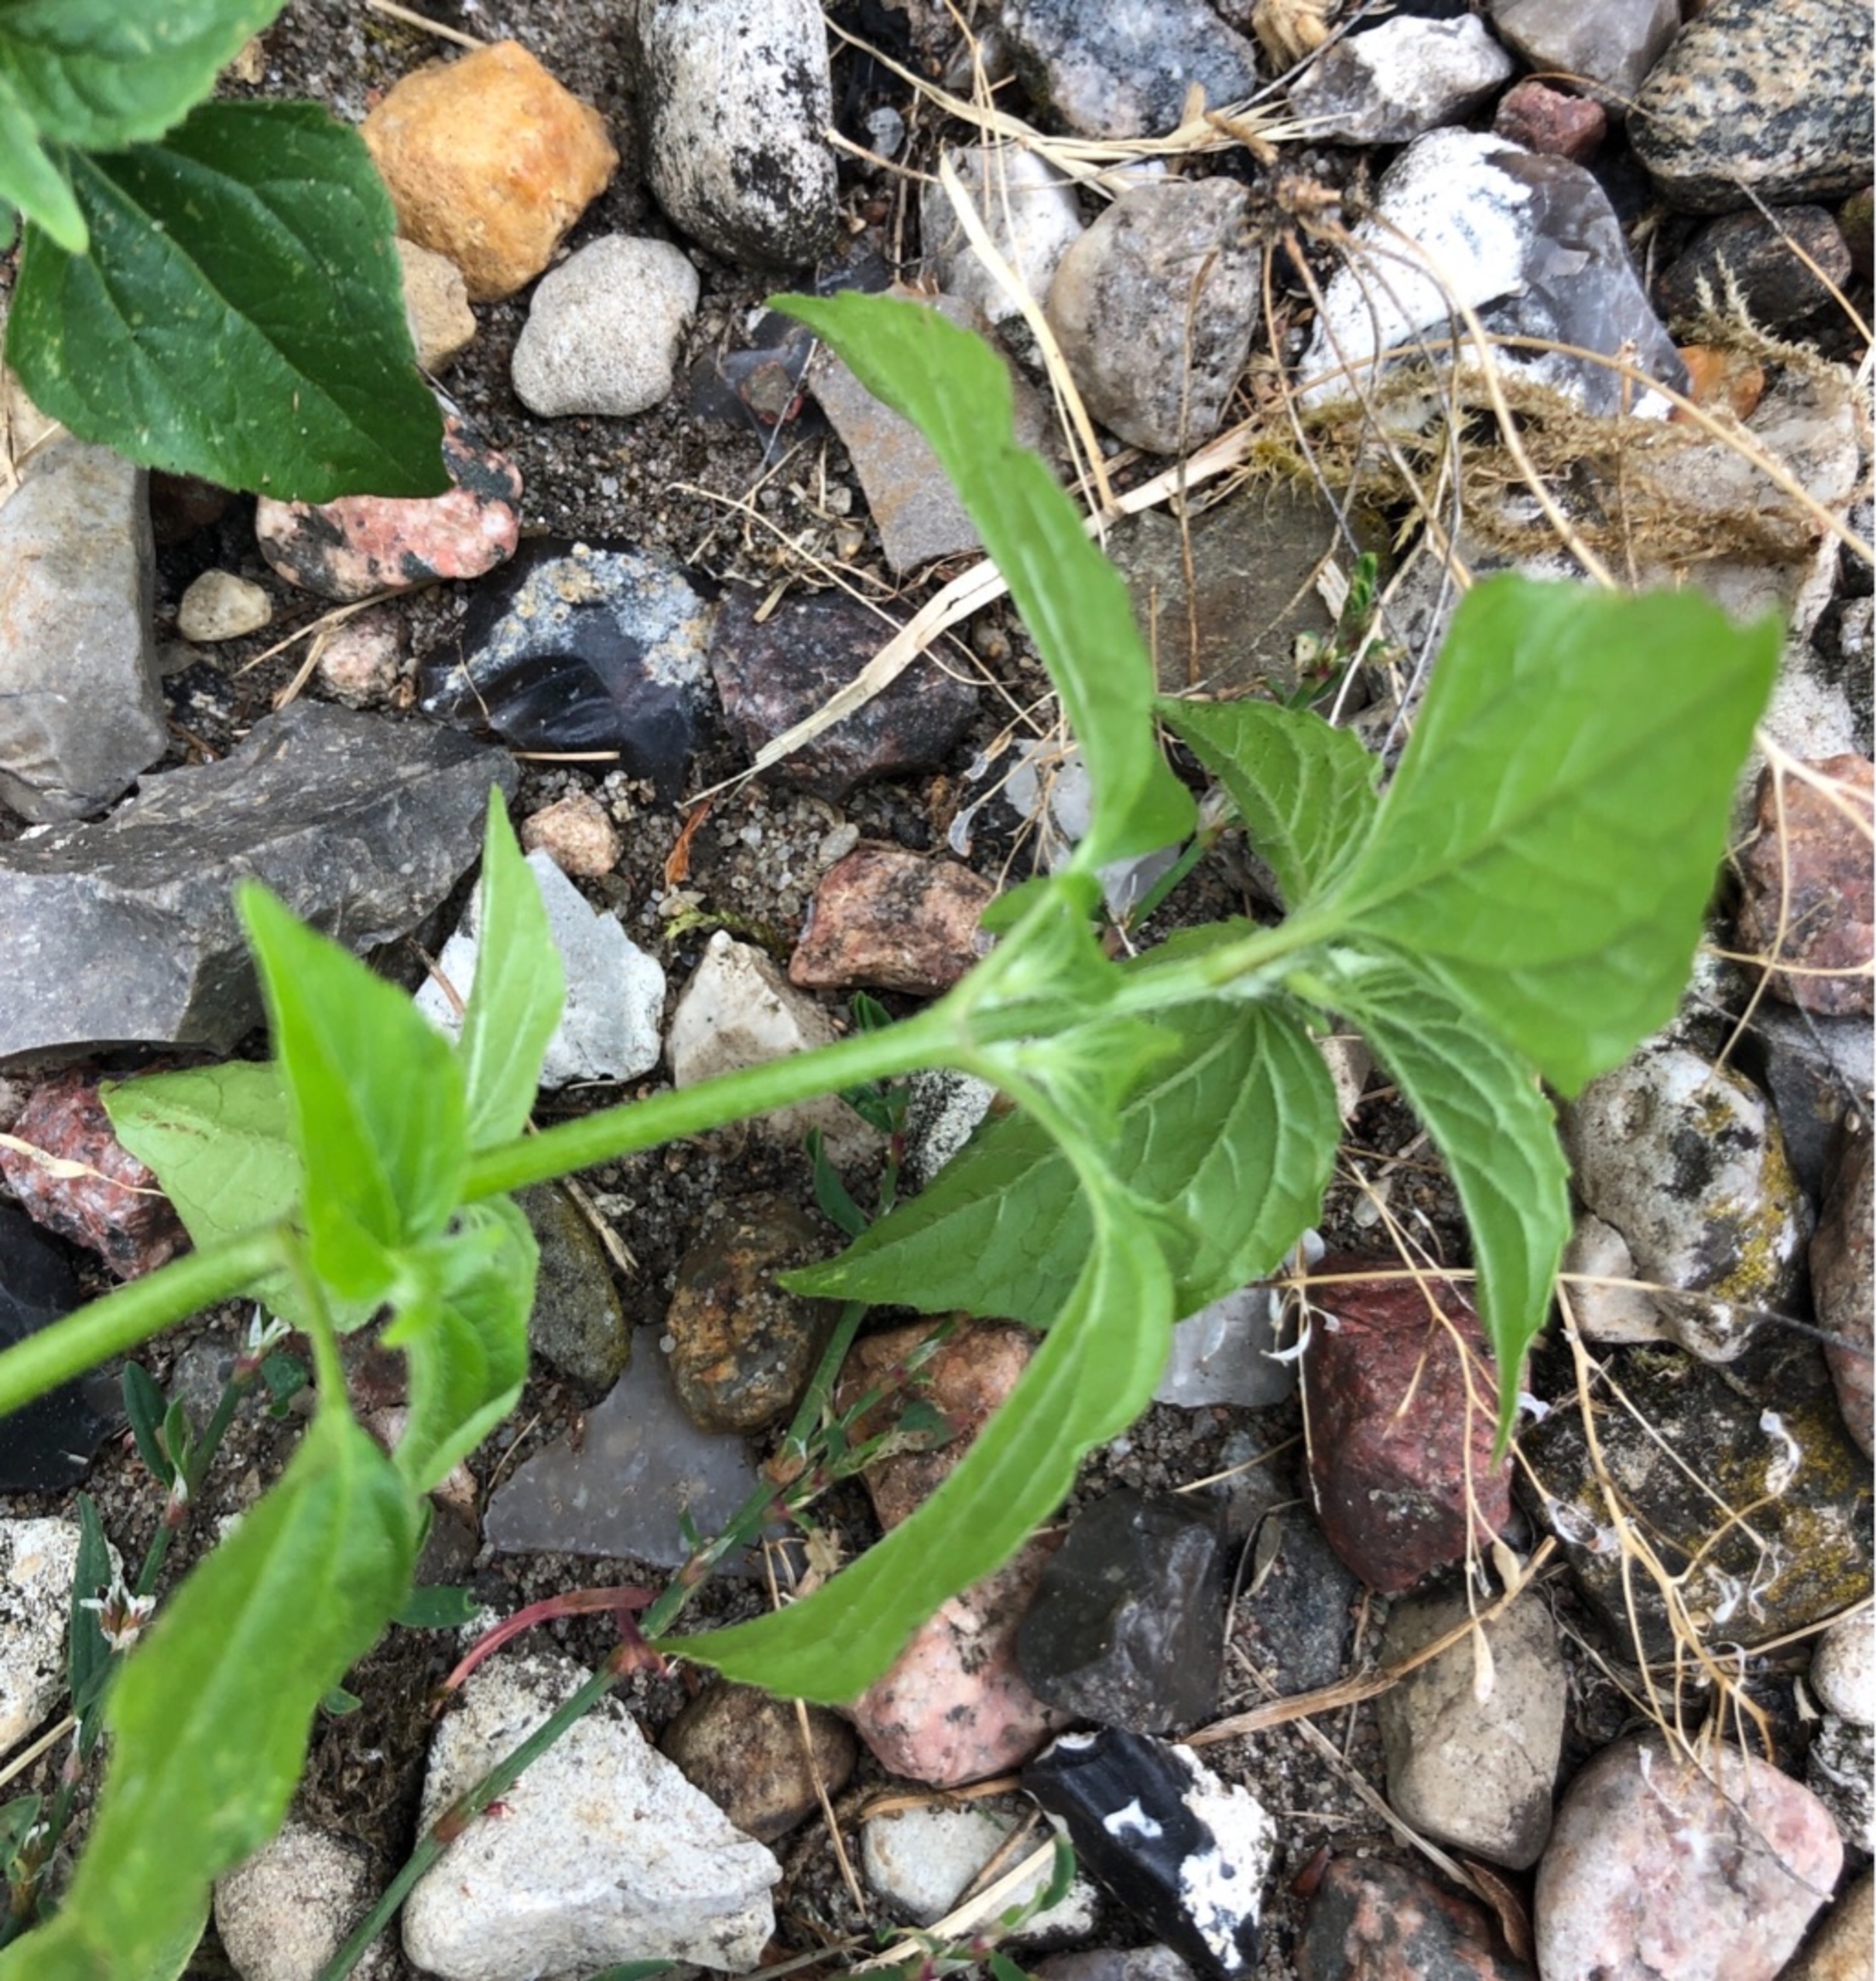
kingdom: Plantae
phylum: Tracheophyta
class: Magnoliopsida
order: Asterales
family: Asteraceae
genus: Galinsoga
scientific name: Galinsoga parviflora
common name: Håret kortstråle
